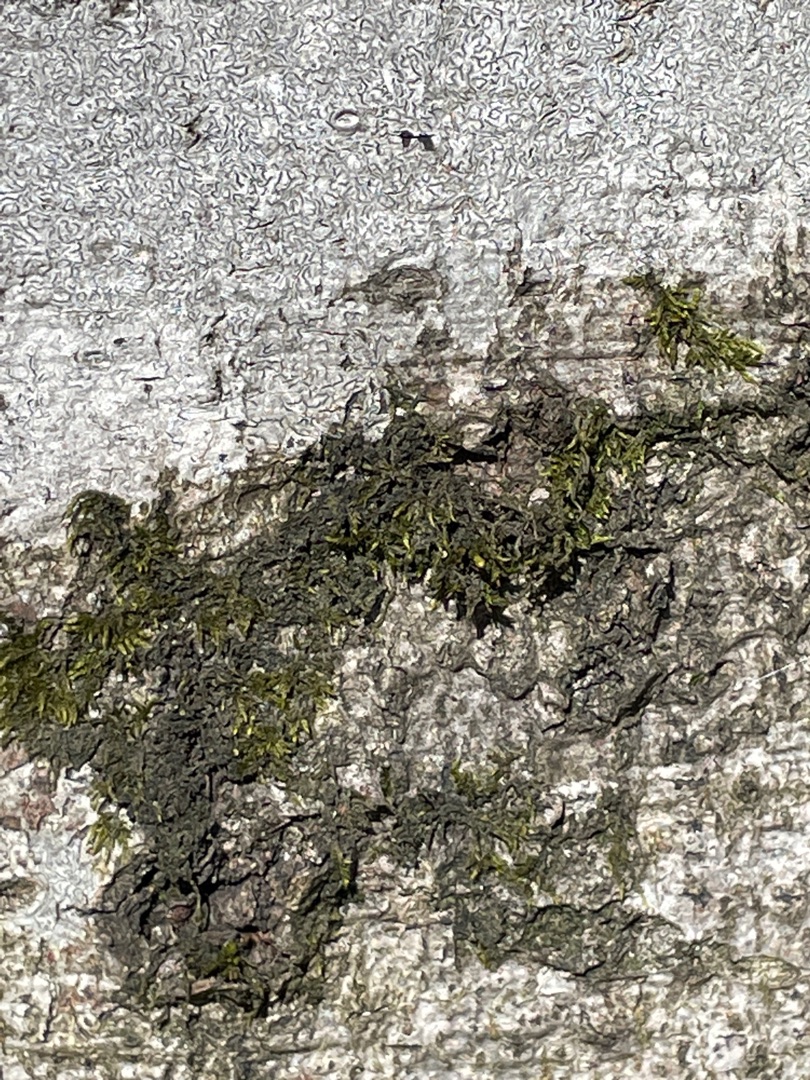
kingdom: Fungi
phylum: Ascomycota
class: Lecanoromycetes
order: Ostropales
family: Graphidaceae
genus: Graphis
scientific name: Graphis scripta
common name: Almindelig skriftlav
